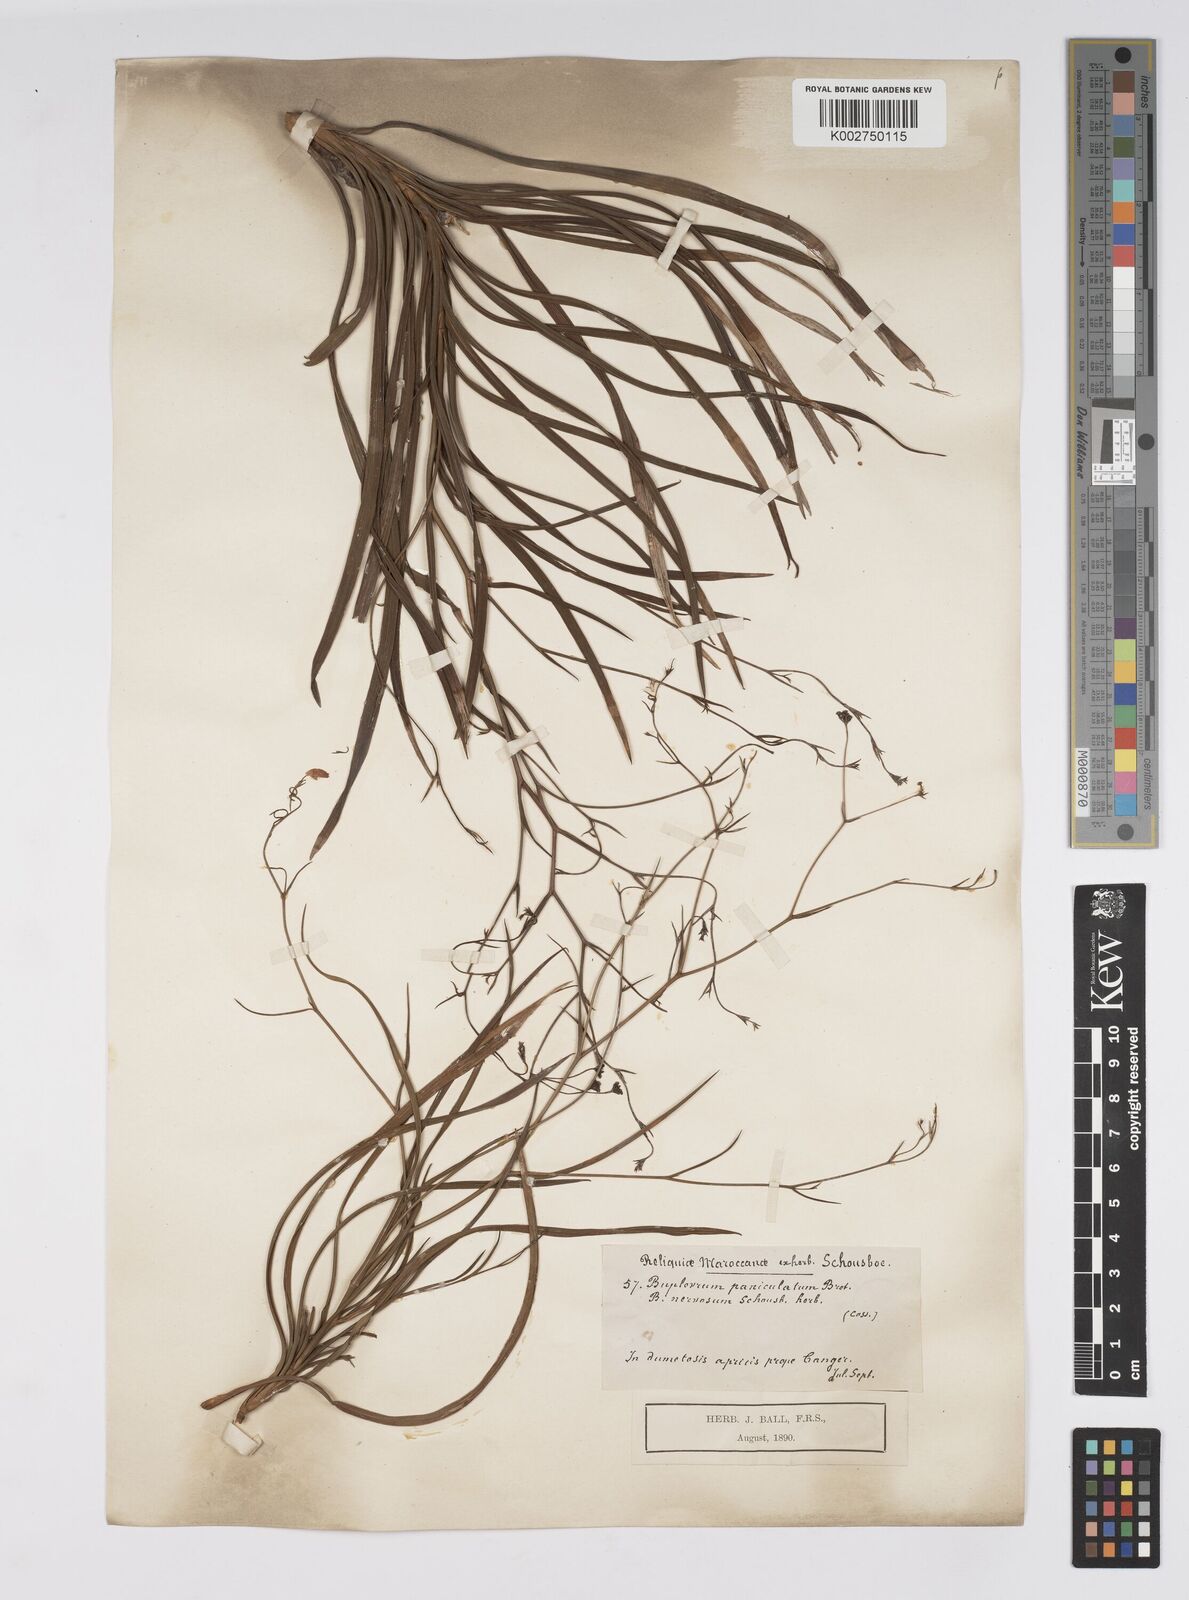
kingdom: Plantae
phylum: Tracheophyta
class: Magnoliopsida
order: Apiales
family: Apiaceae
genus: Bupleurum
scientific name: Bupleurum rigidum
